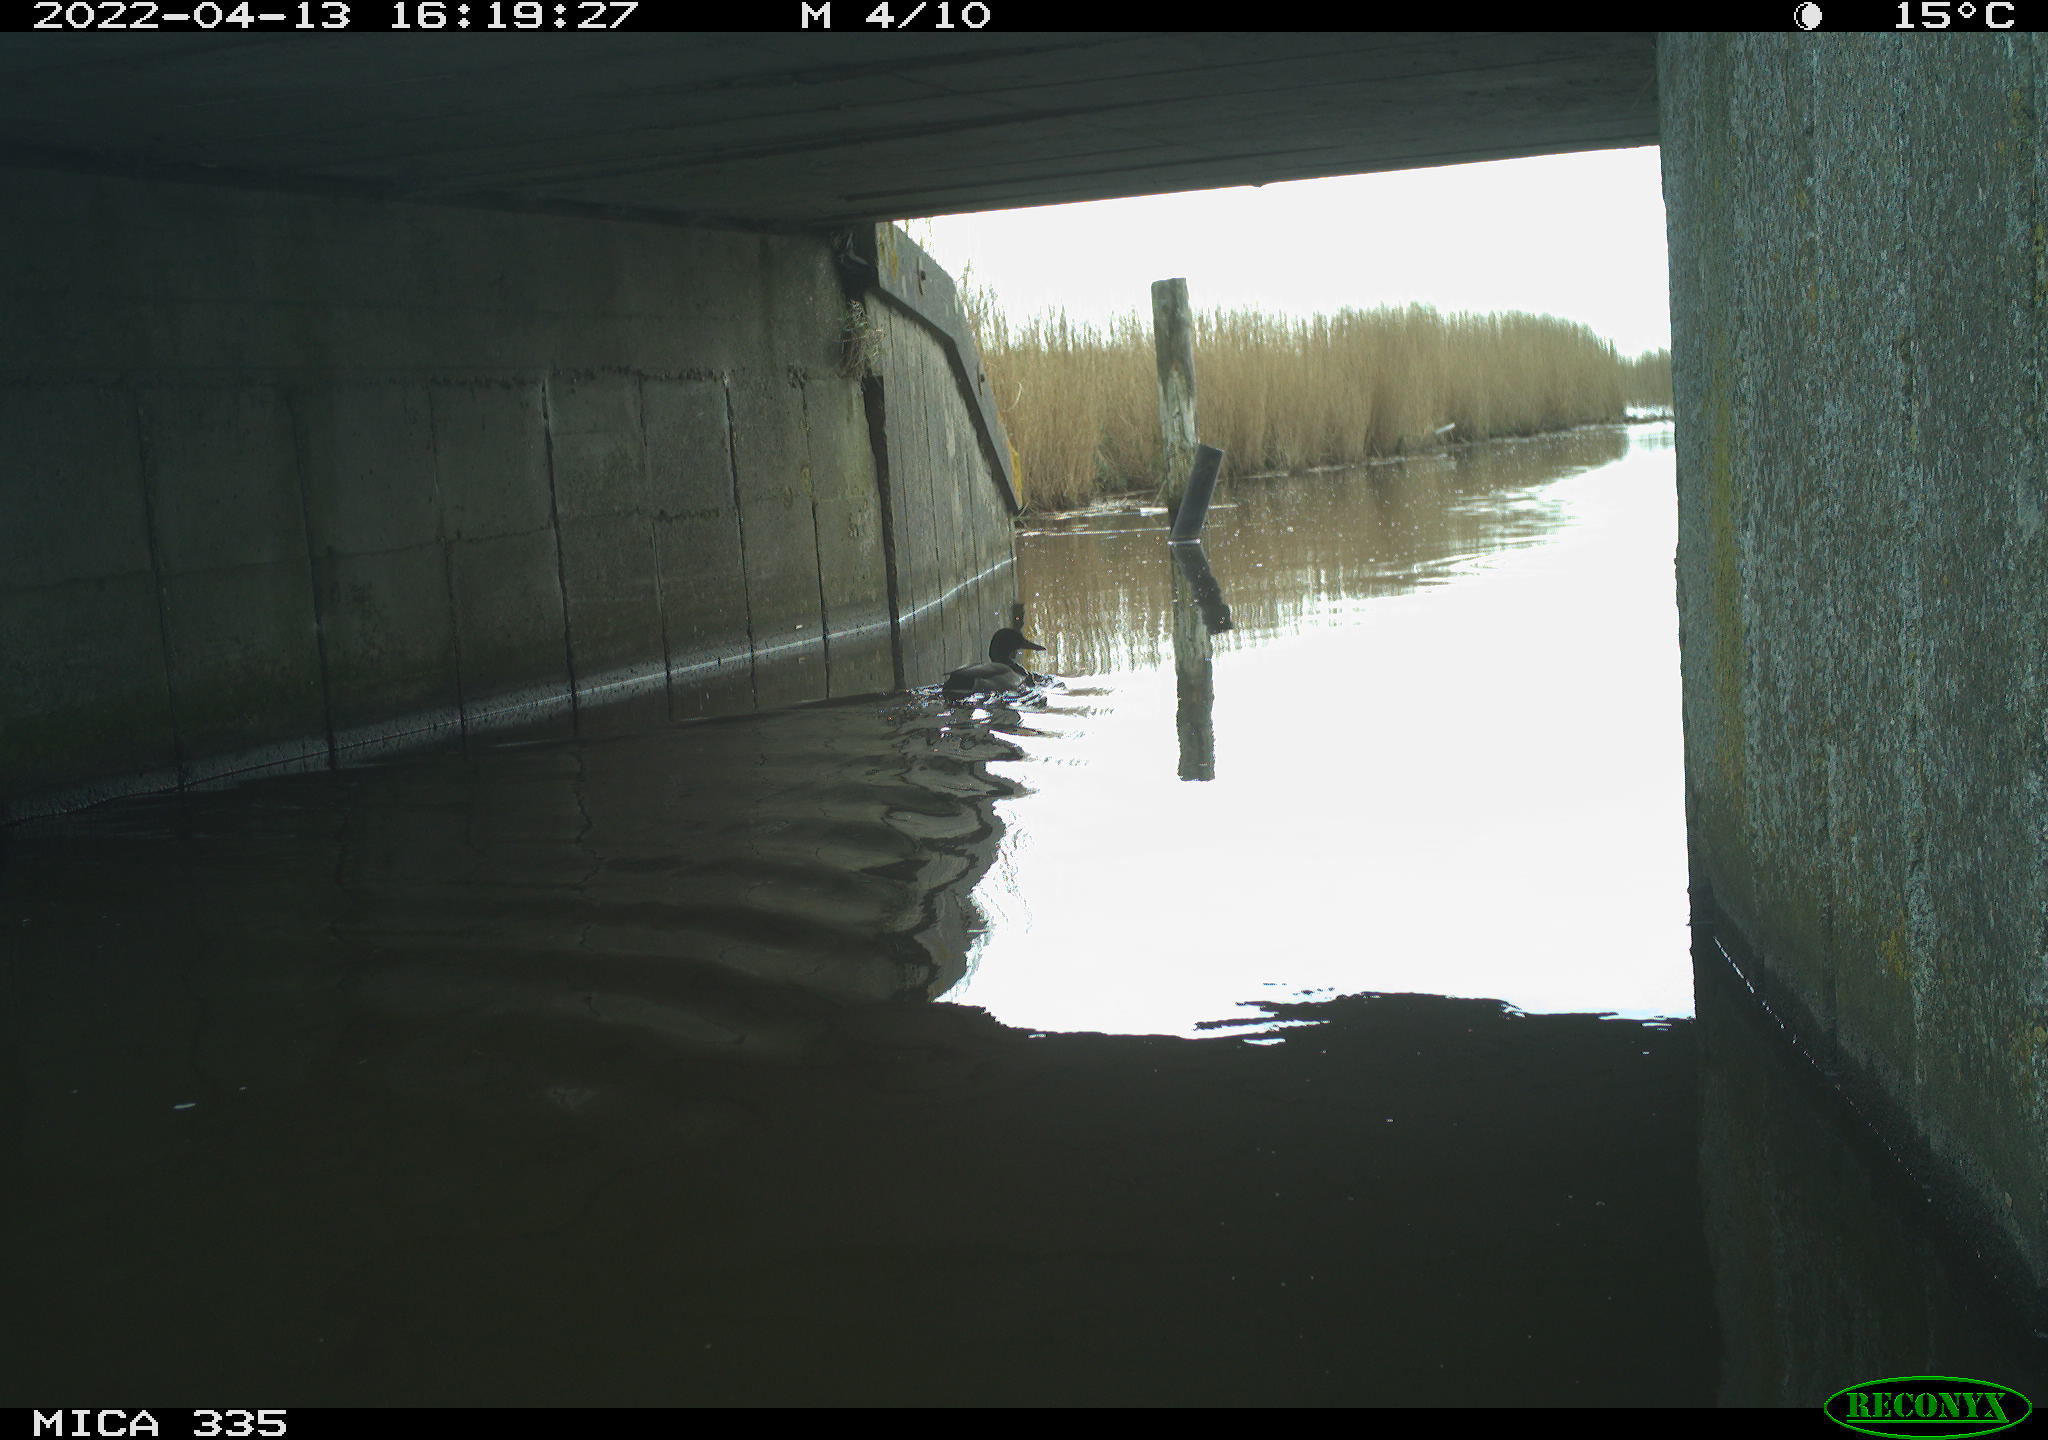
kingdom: Animalia
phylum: Chordata
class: Aves
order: Anseriformes
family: Anatidae
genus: Anas
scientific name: Anas platyrhynchos
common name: Mallard
